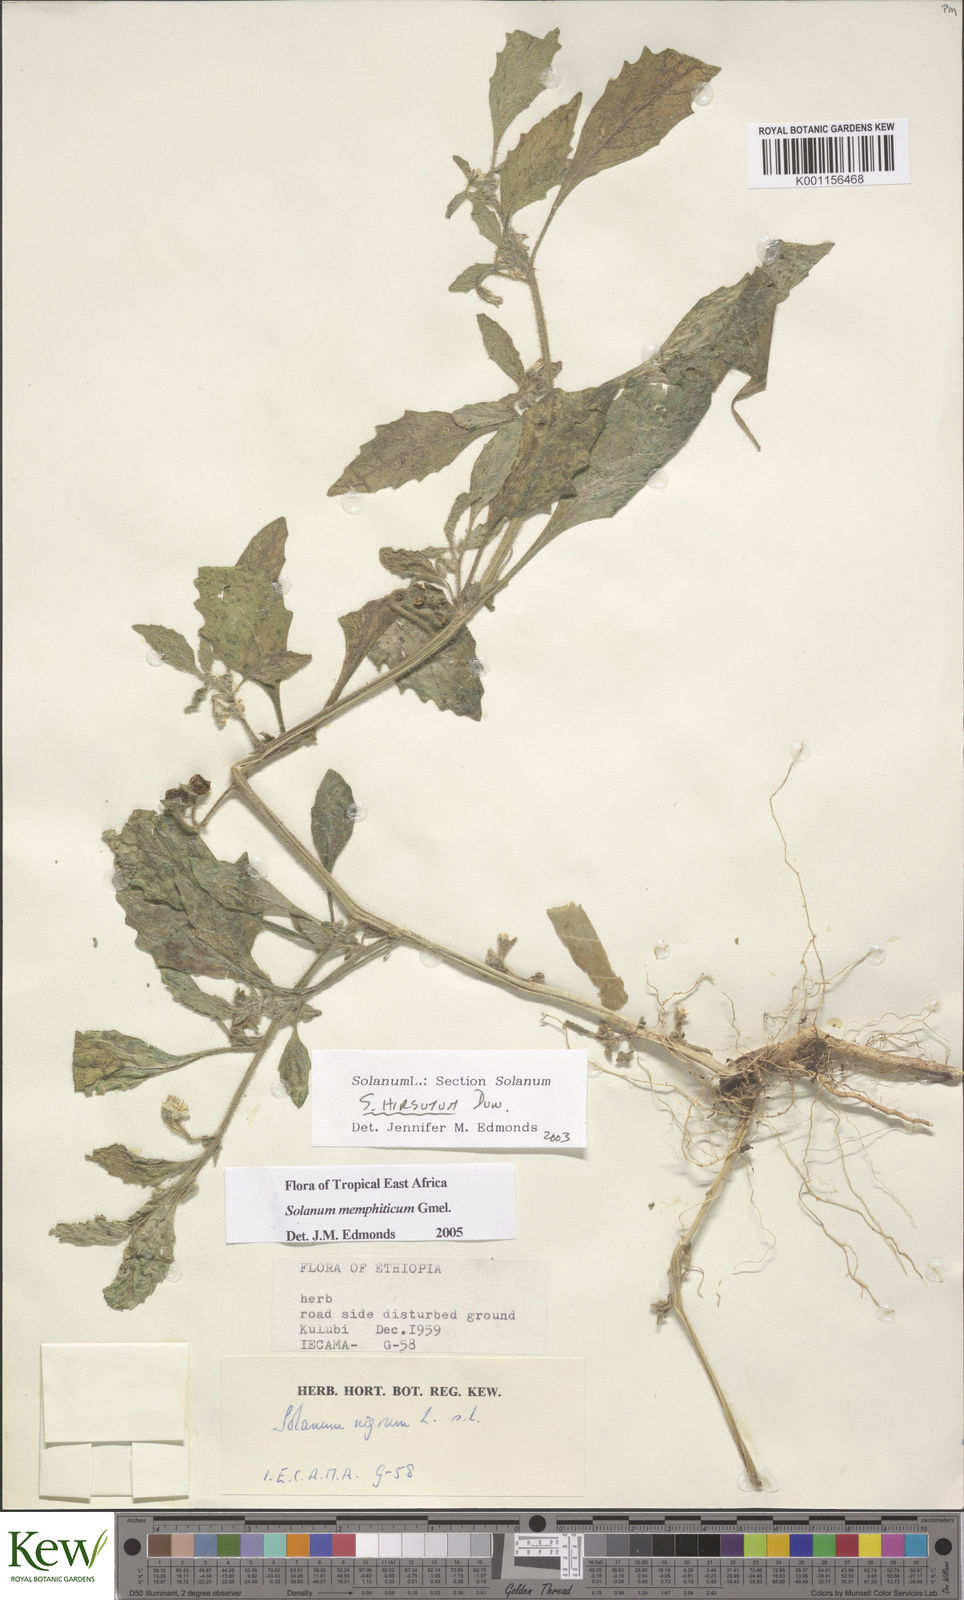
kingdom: Plantae
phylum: Tracheophyta
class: Magnoliopsida
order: Solanales
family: Solanaceae
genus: Solanum
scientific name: Solanum memphiticum
